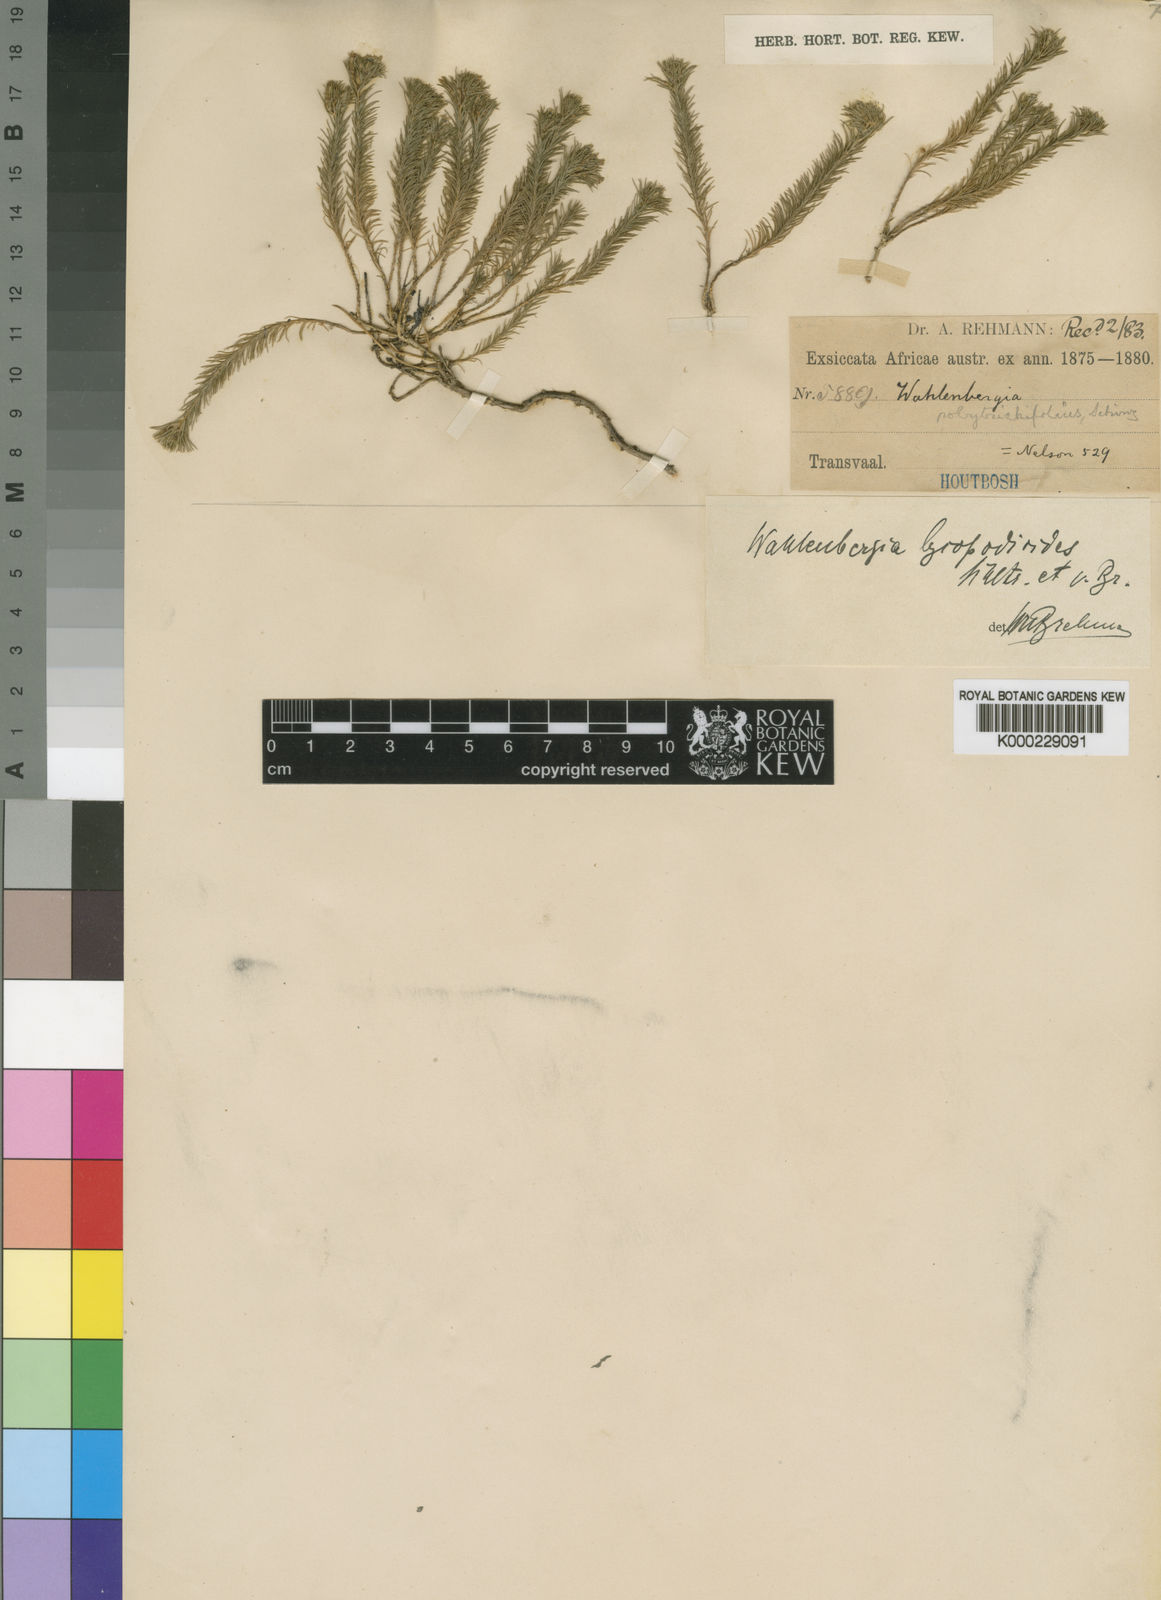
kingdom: Plantae
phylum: Tracheophyta
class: Magnoliopsida
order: Asterales
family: Campanulaceae
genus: Wahlenbergia
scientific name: Wahlenbergia lycopodioides
